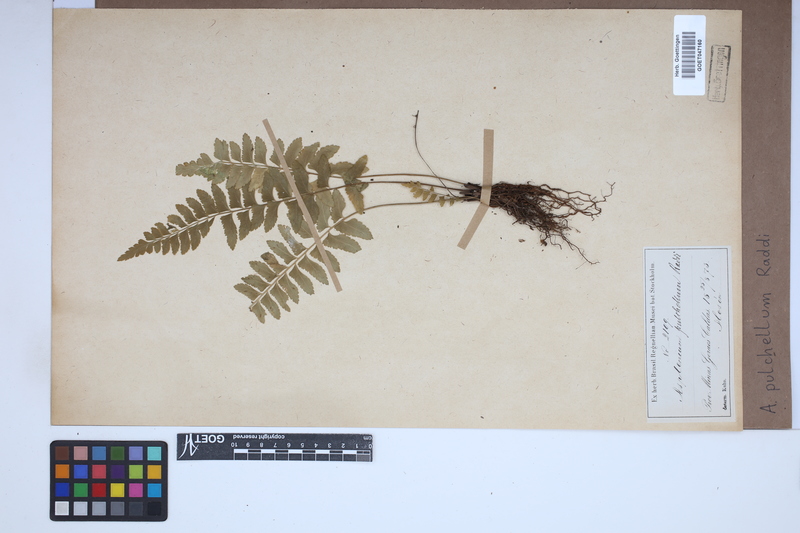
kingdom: Plantae
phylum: Tracheophyta
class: Polypodiopsida
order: Polypodiales
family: Aspleniaceae
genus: Asplenium
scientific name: Asplenium pulchellum
